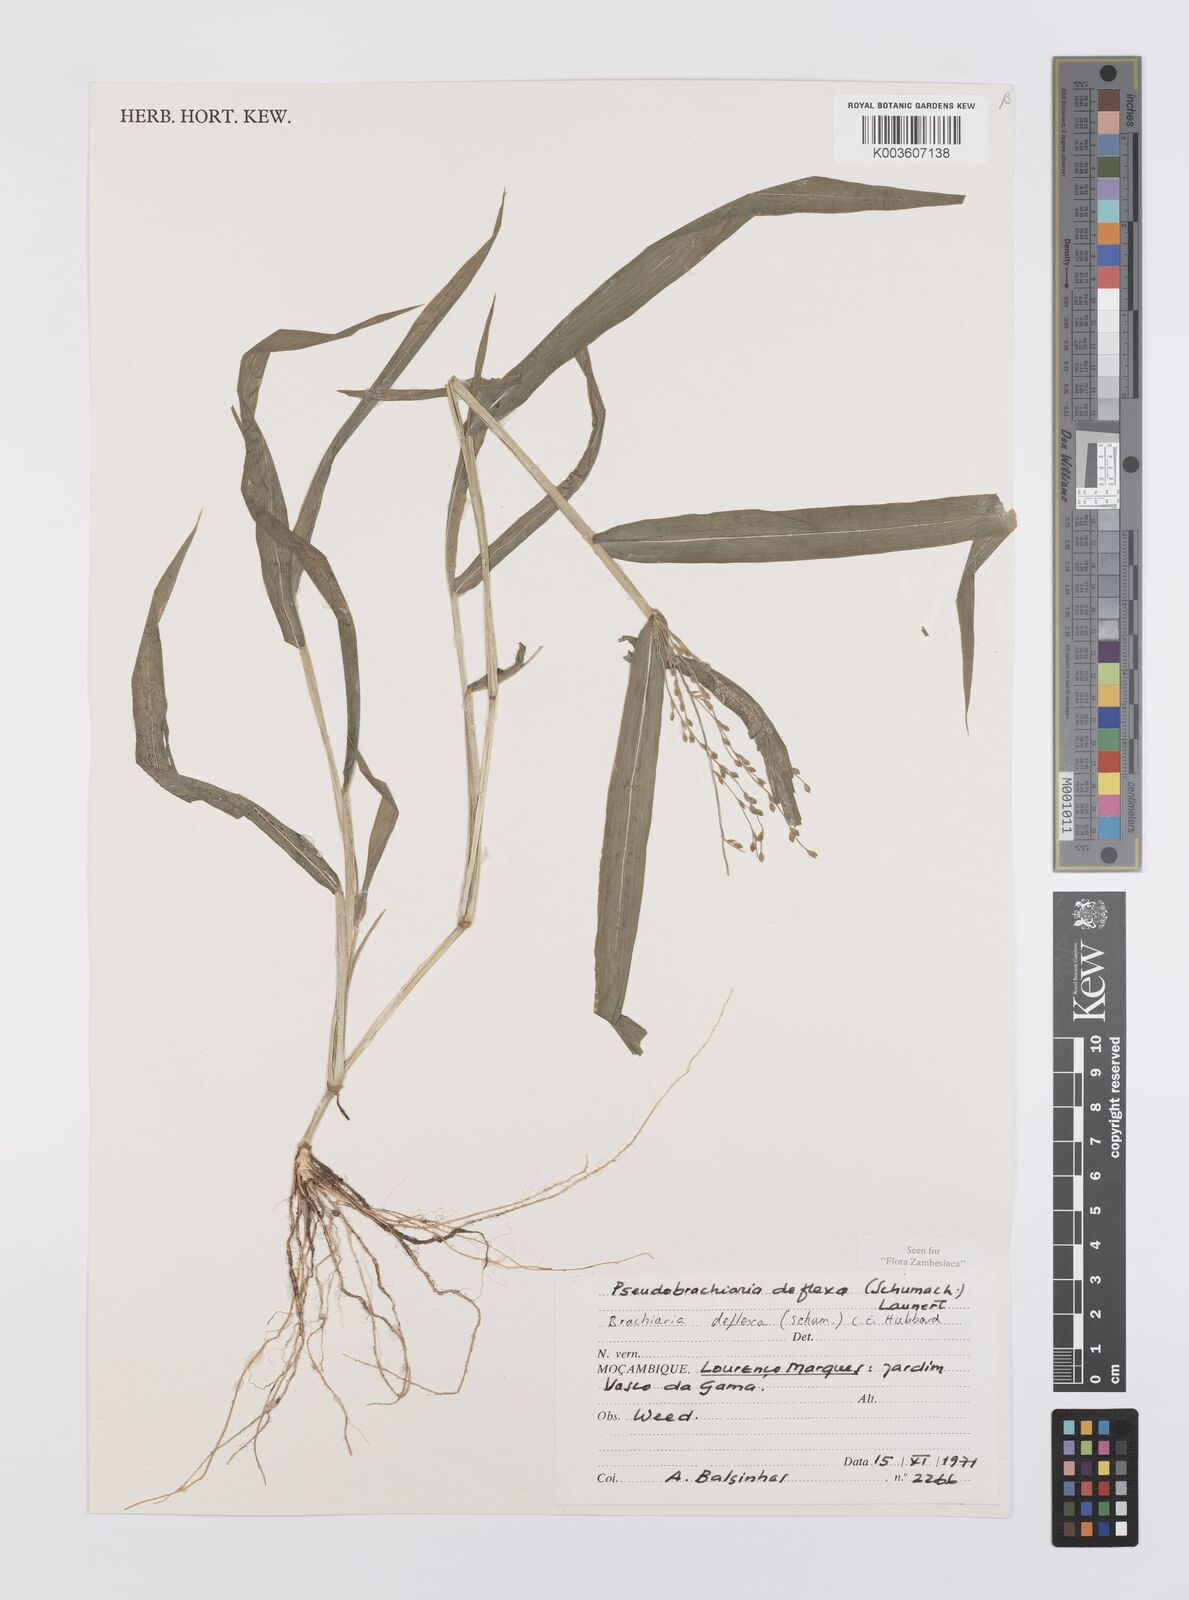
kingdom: Plantae
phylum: Tracheophyta
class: Liliopsida
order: Poales
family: Poaceae
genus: Urochloa
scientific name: Urochloa deflexa
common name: Guinea millet
